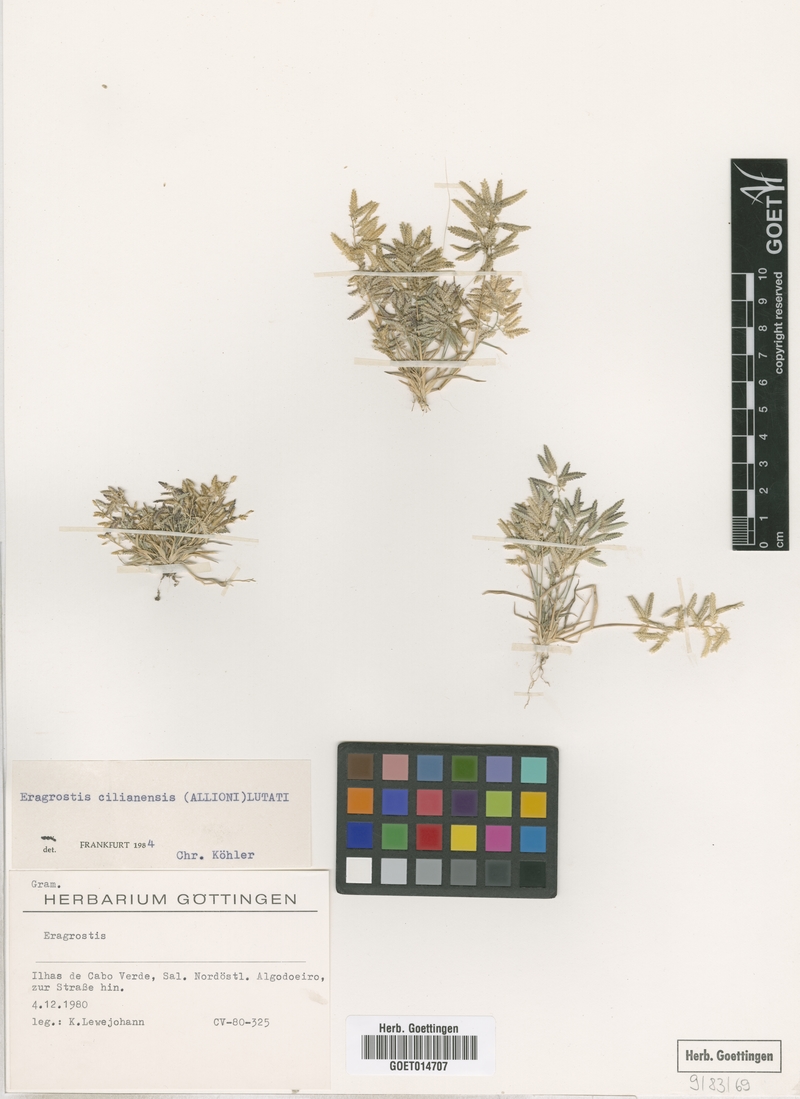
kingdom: Plantae
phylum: Tracheophyta
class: Liliopsida
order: Poales
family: Poaceae
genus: Eragrostis
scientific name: Eragrostis cilianensis
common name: Stinkgrass
